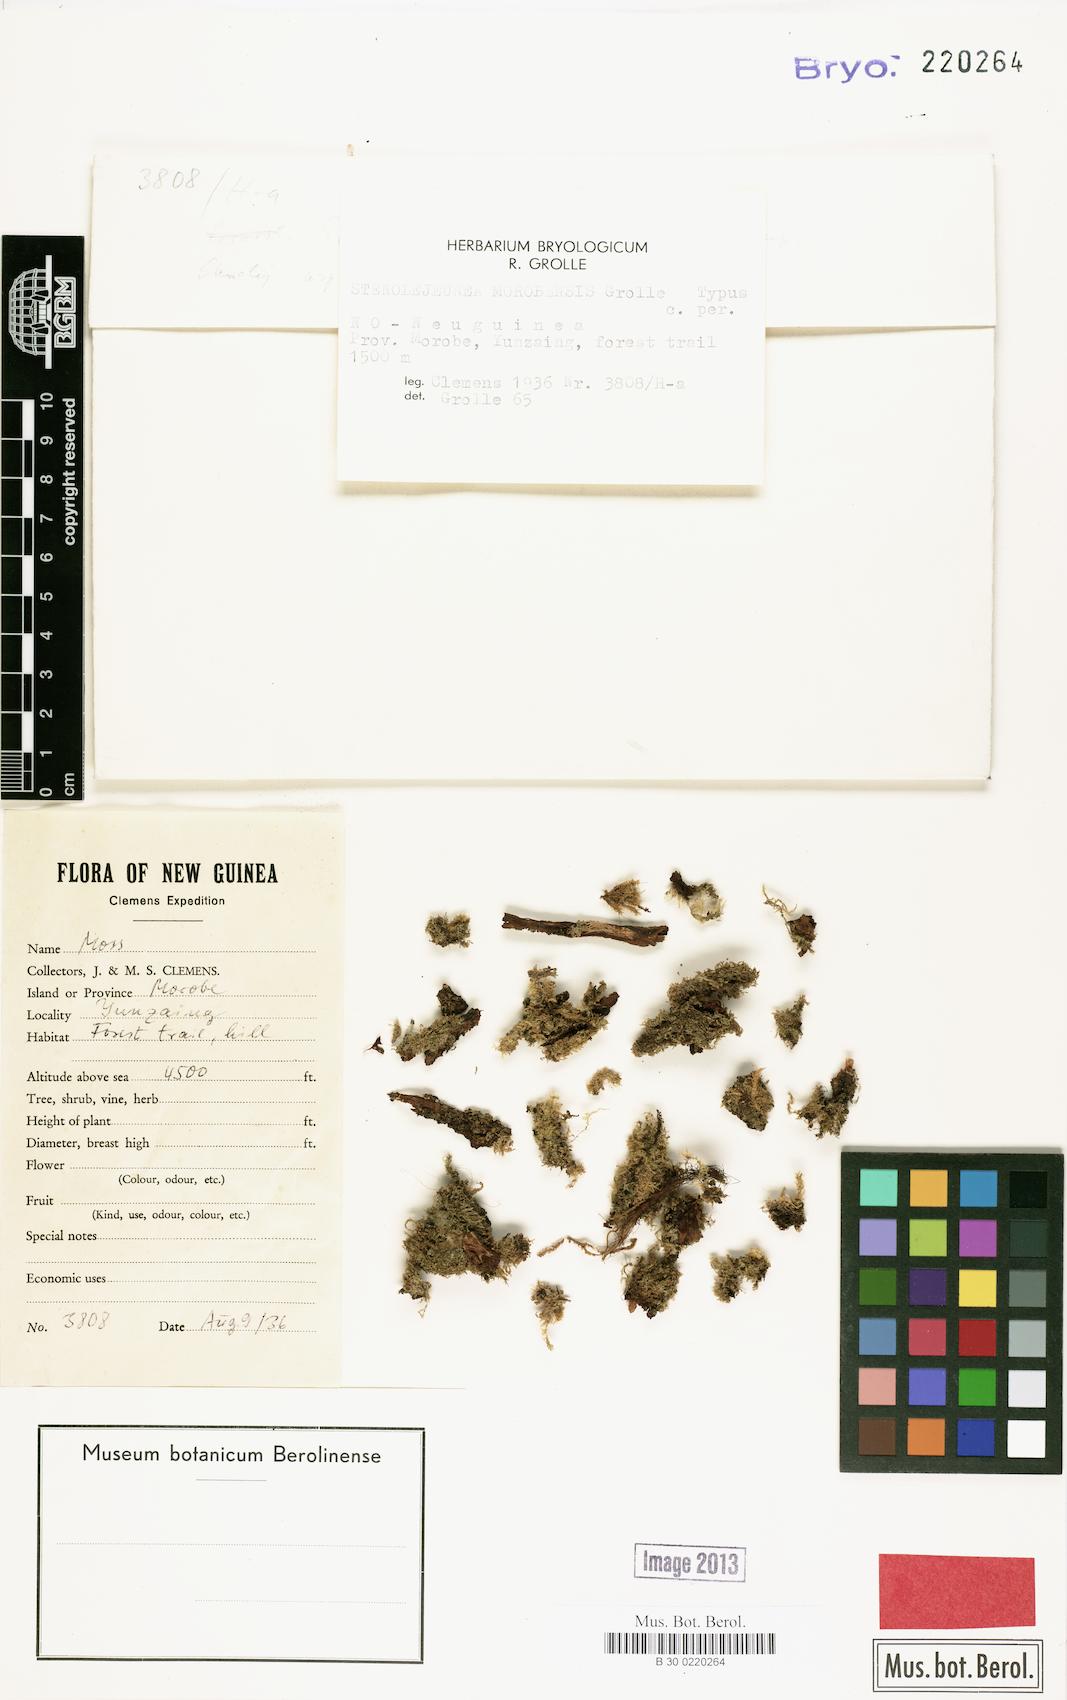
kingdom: Plantae
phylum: Marchantiophyta
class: Jungermanniopsida
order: Porellales
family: Lejeuneaceae
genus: Lejeunea
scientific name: Lejeunea morobensis
